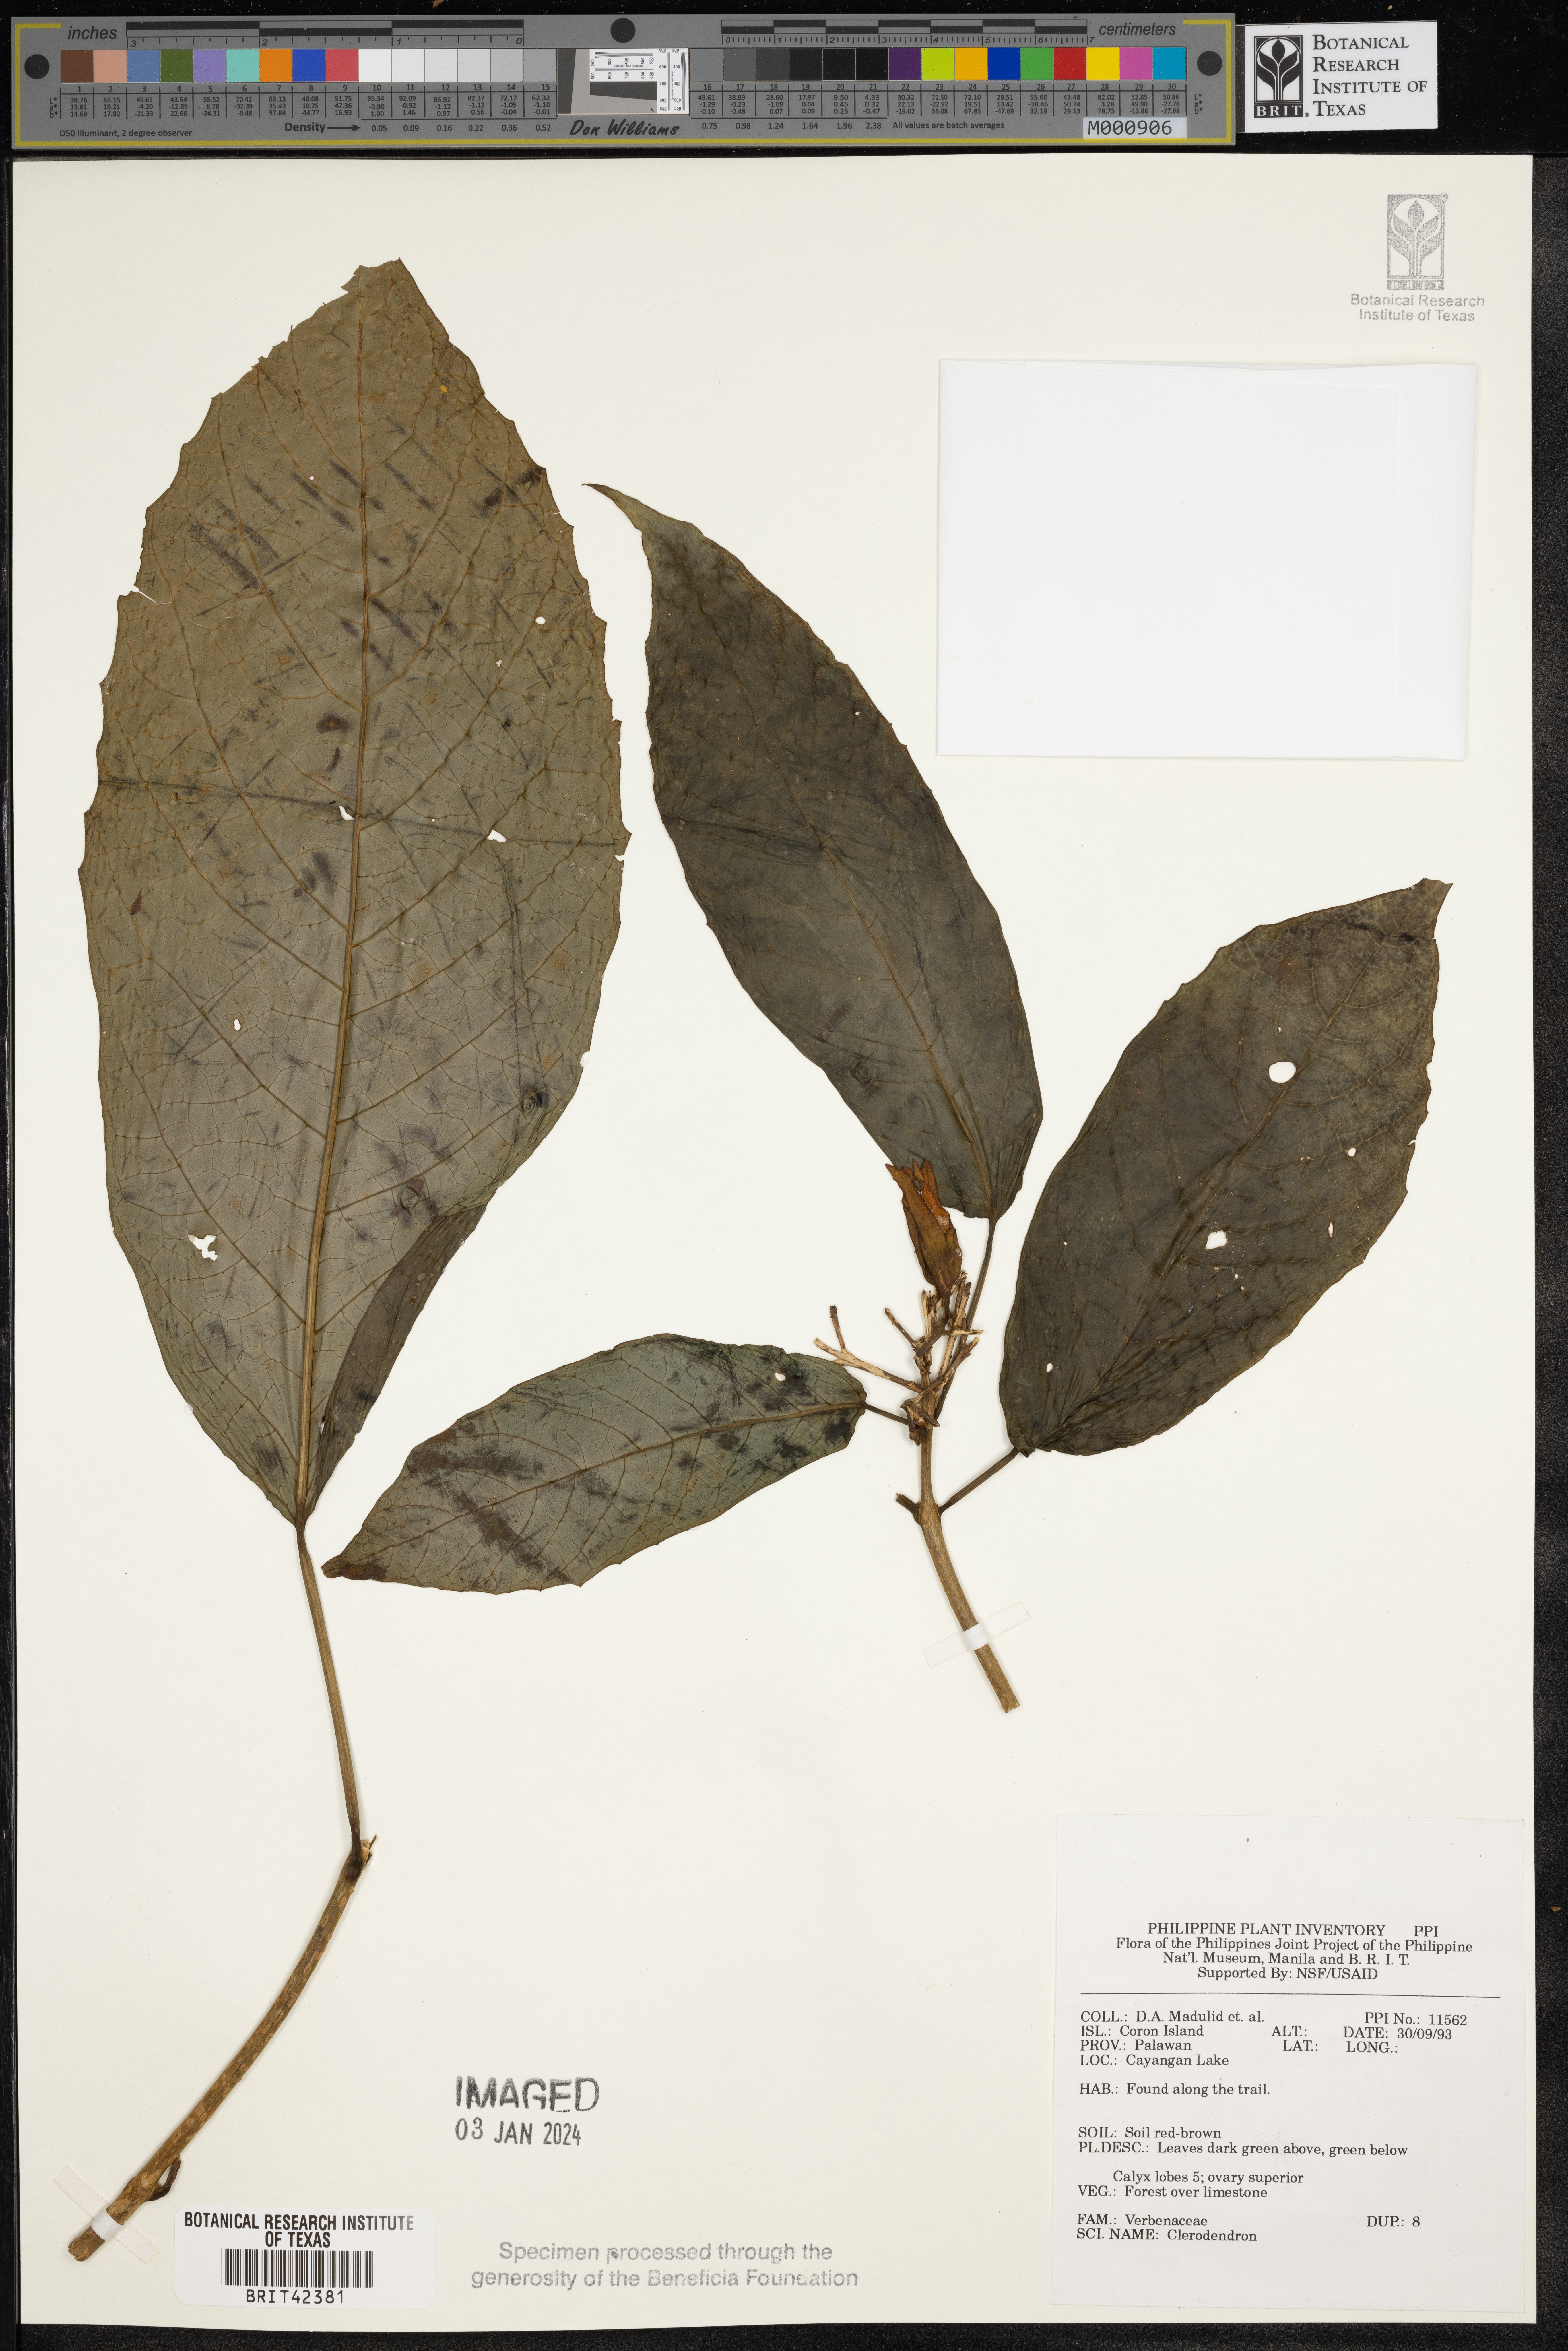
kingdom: Plantae
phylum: Tracheophyta
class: Magnoliopsida
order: Lamiales
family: Lamiaceae
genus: Clerodendrum
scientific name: Clerodendrum
